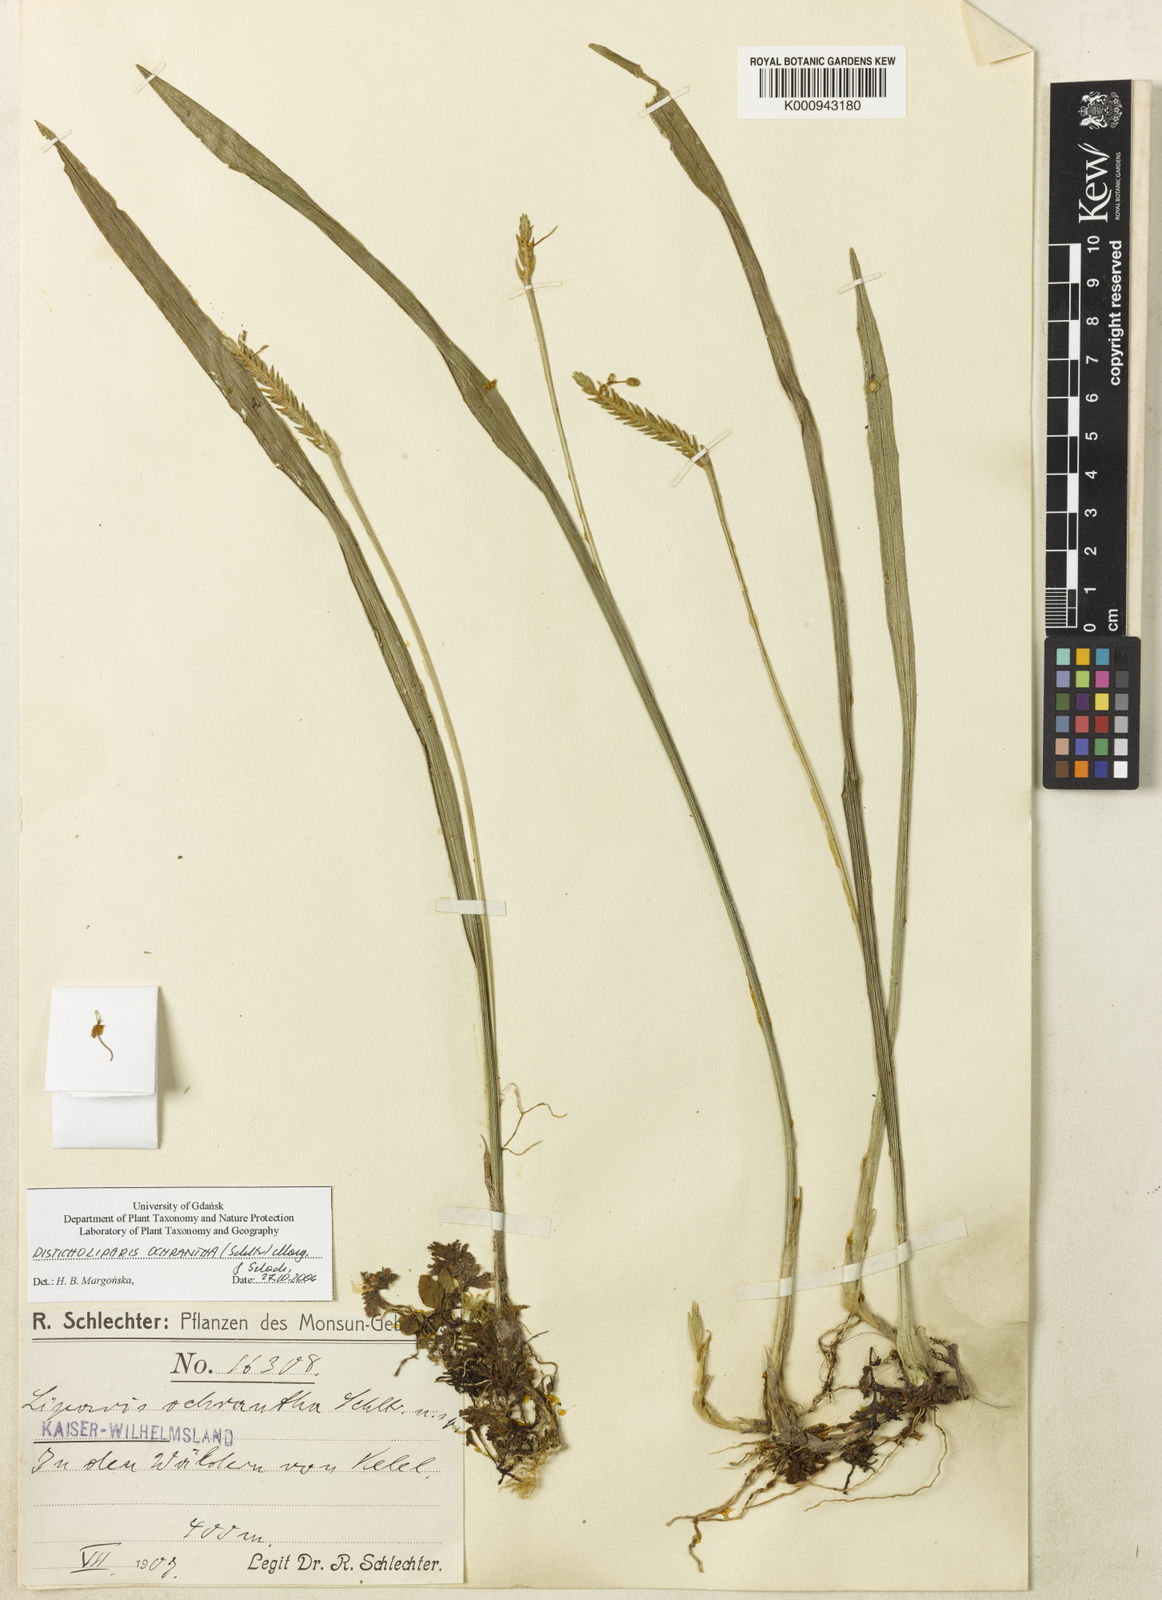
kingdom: Plantae
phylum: Tracheophyta
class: Liliopsida
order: Asparagales
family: Orchidaceae
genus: Liparis
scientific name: Liparis ochrantha
